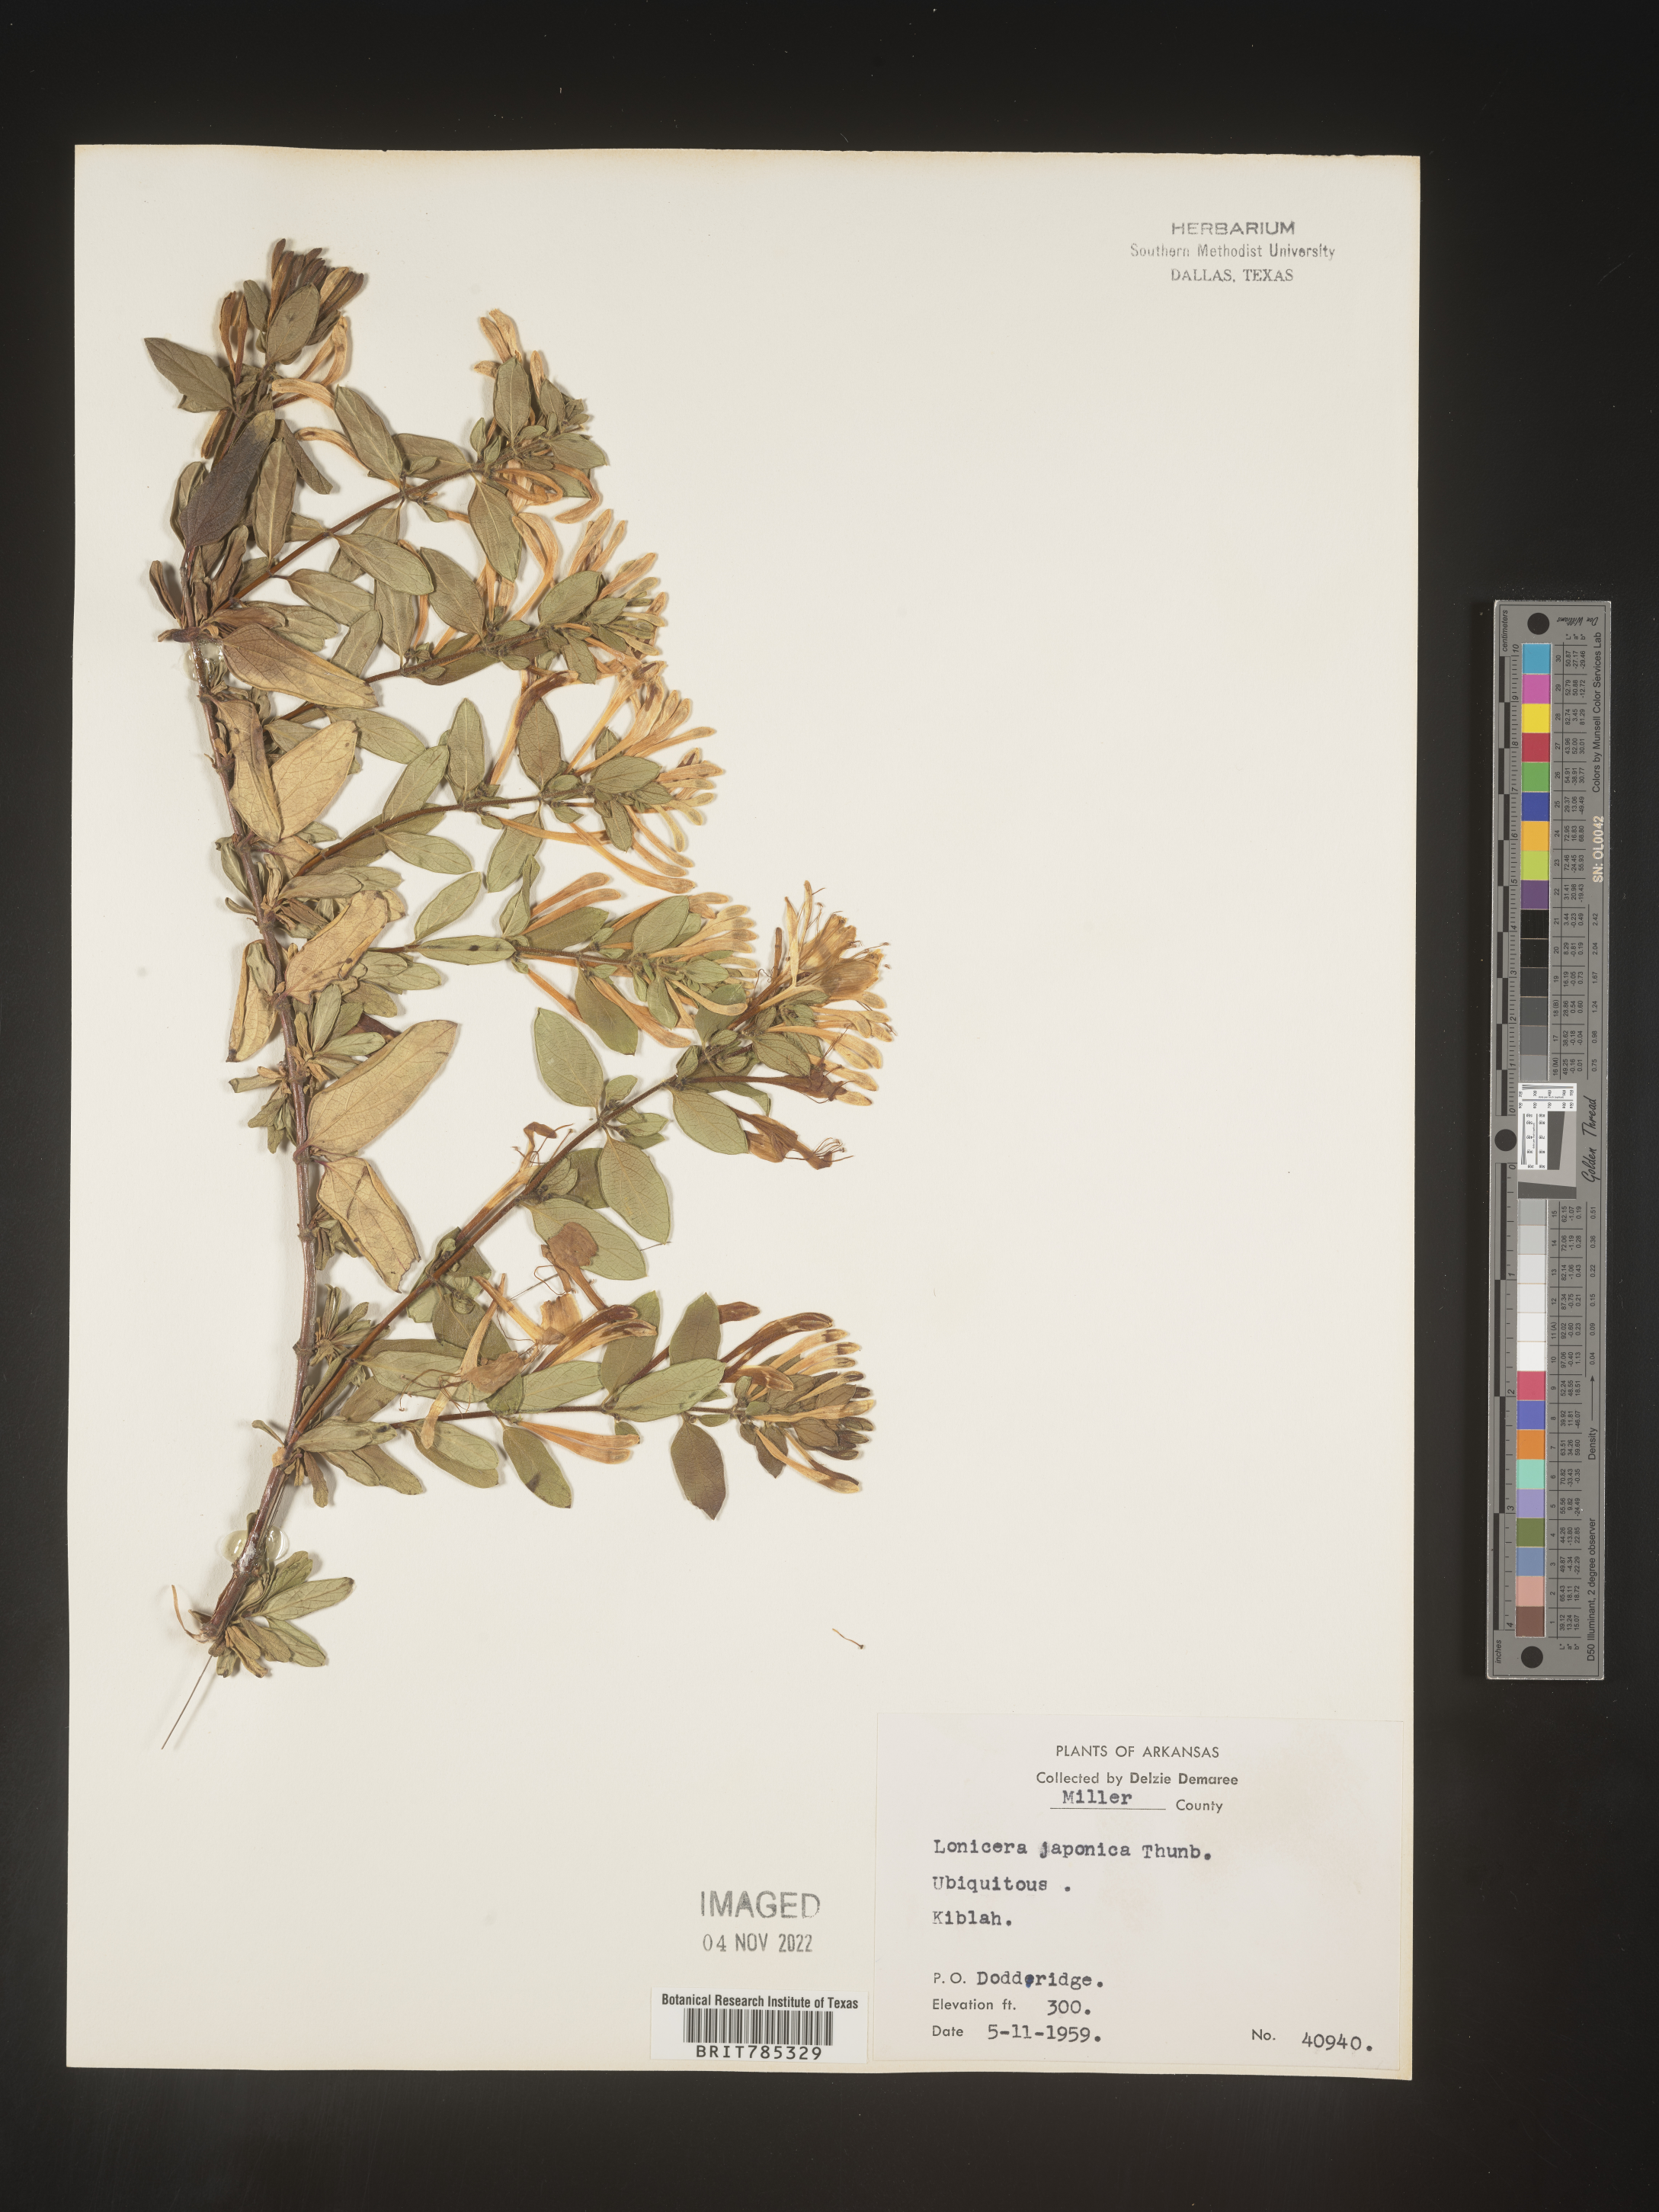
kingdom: Plantae
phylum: Tracheophyta
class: Magnoliopsida
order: Dipsacales
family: Caprifoliaceae
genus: Lonicera
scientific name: Lonicera japonica
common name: Japanese honeysuckle
